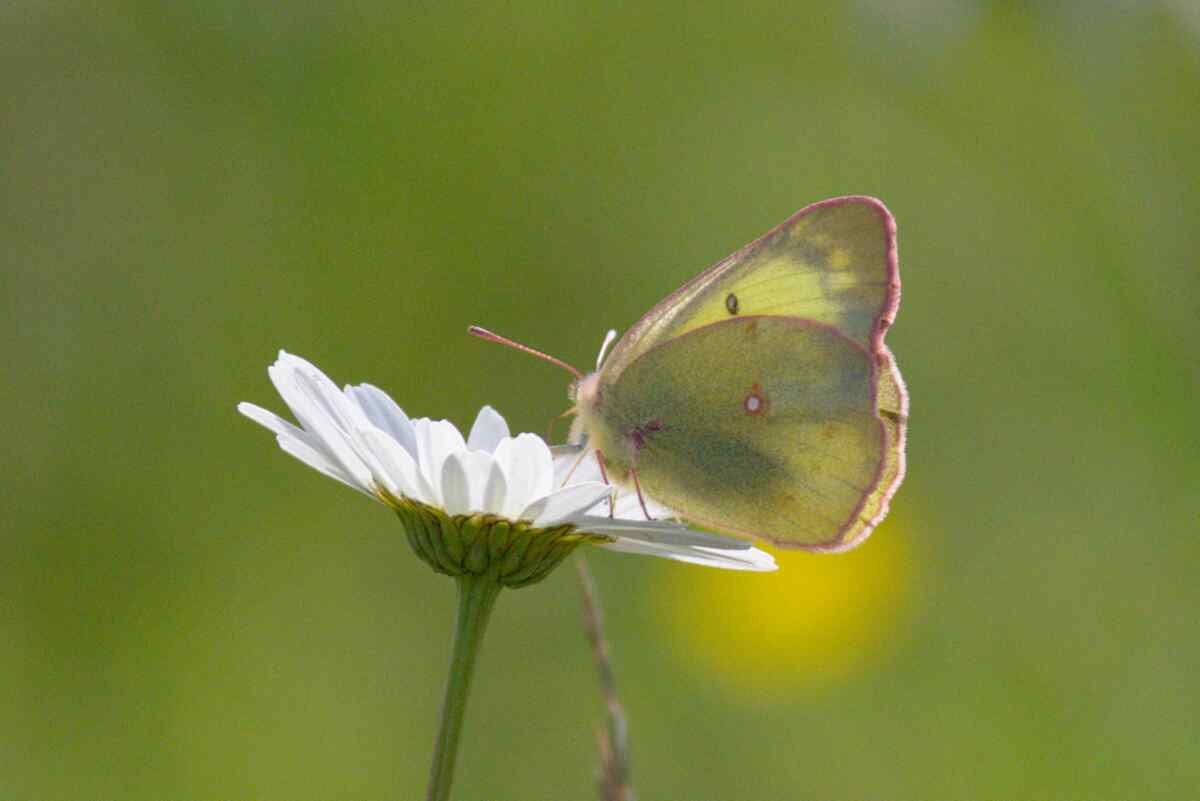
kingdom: Animalia
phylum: Arthropoda
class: Insecta
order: Lepidoptera
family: Pieridae
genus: Colias
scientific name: Colias philodice
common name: Clouded Sulphur
